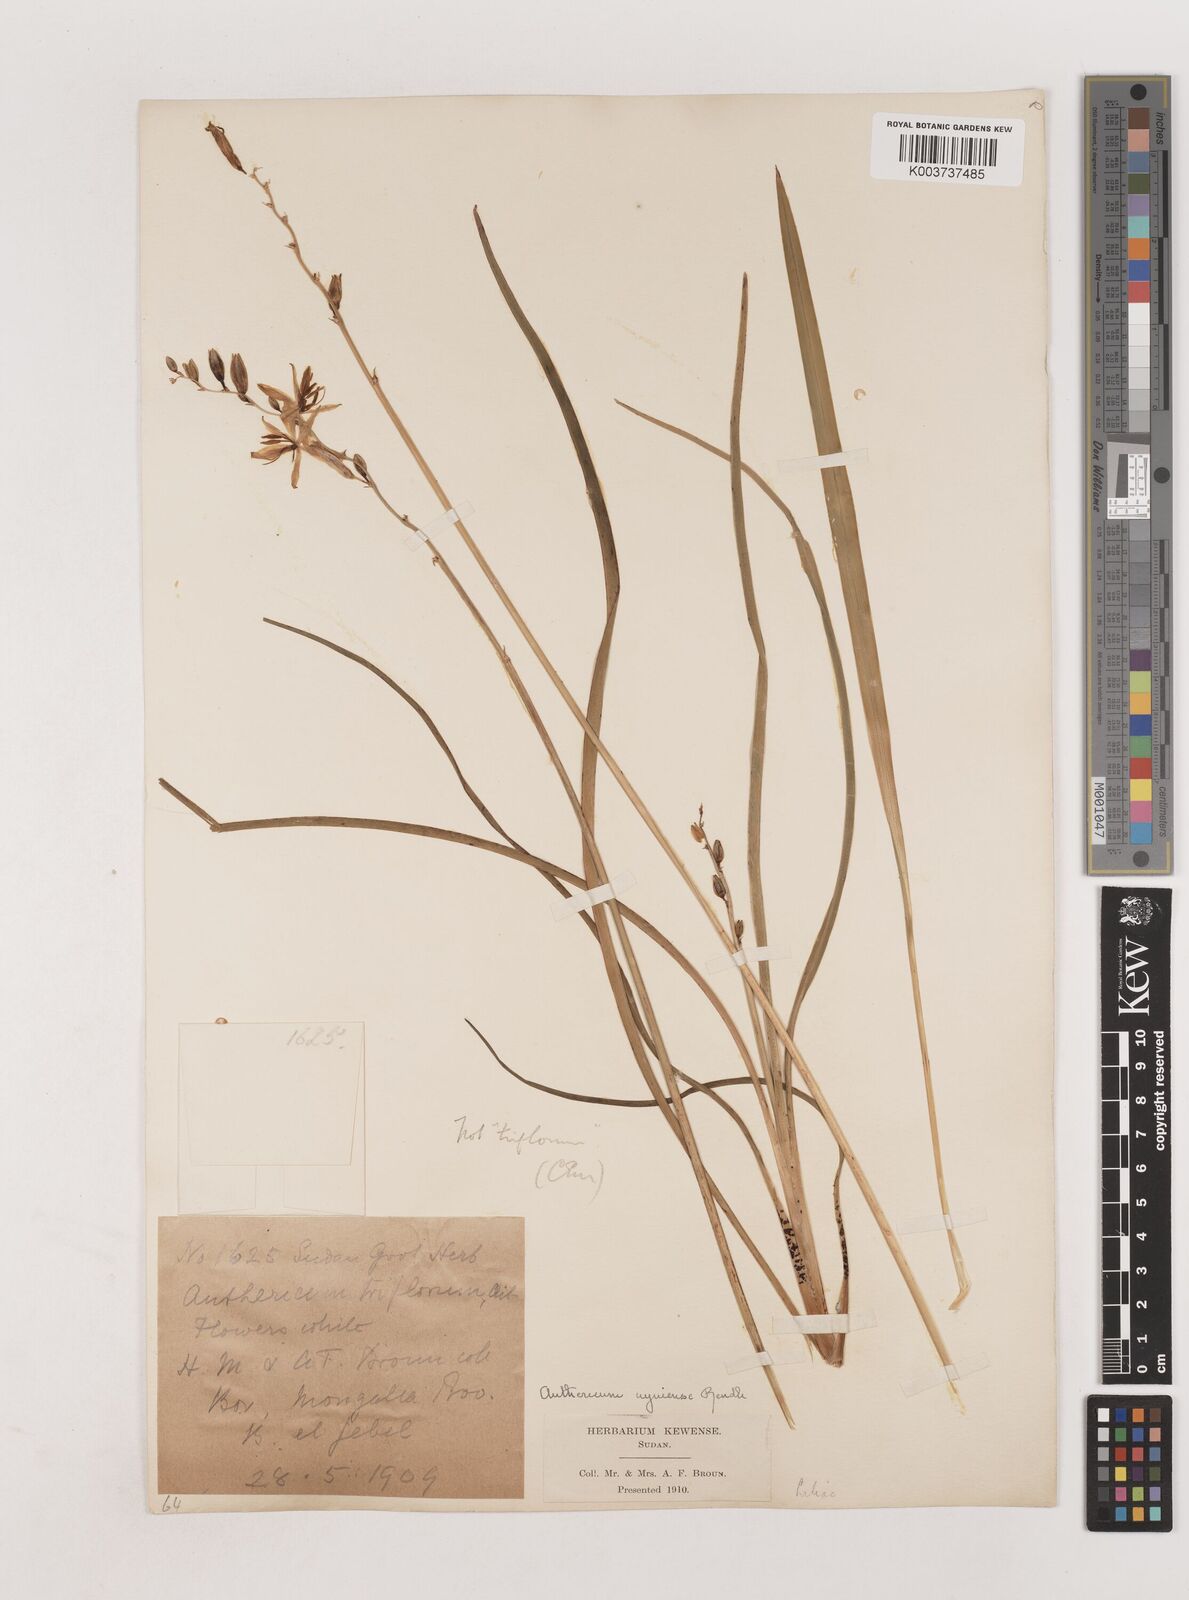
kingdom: Plantae
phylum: Tracheophyta
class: Liliopsida
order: Asparagales
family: Asparagaceae
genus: Chlorophytum
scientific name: Chlorophytum cameronii
